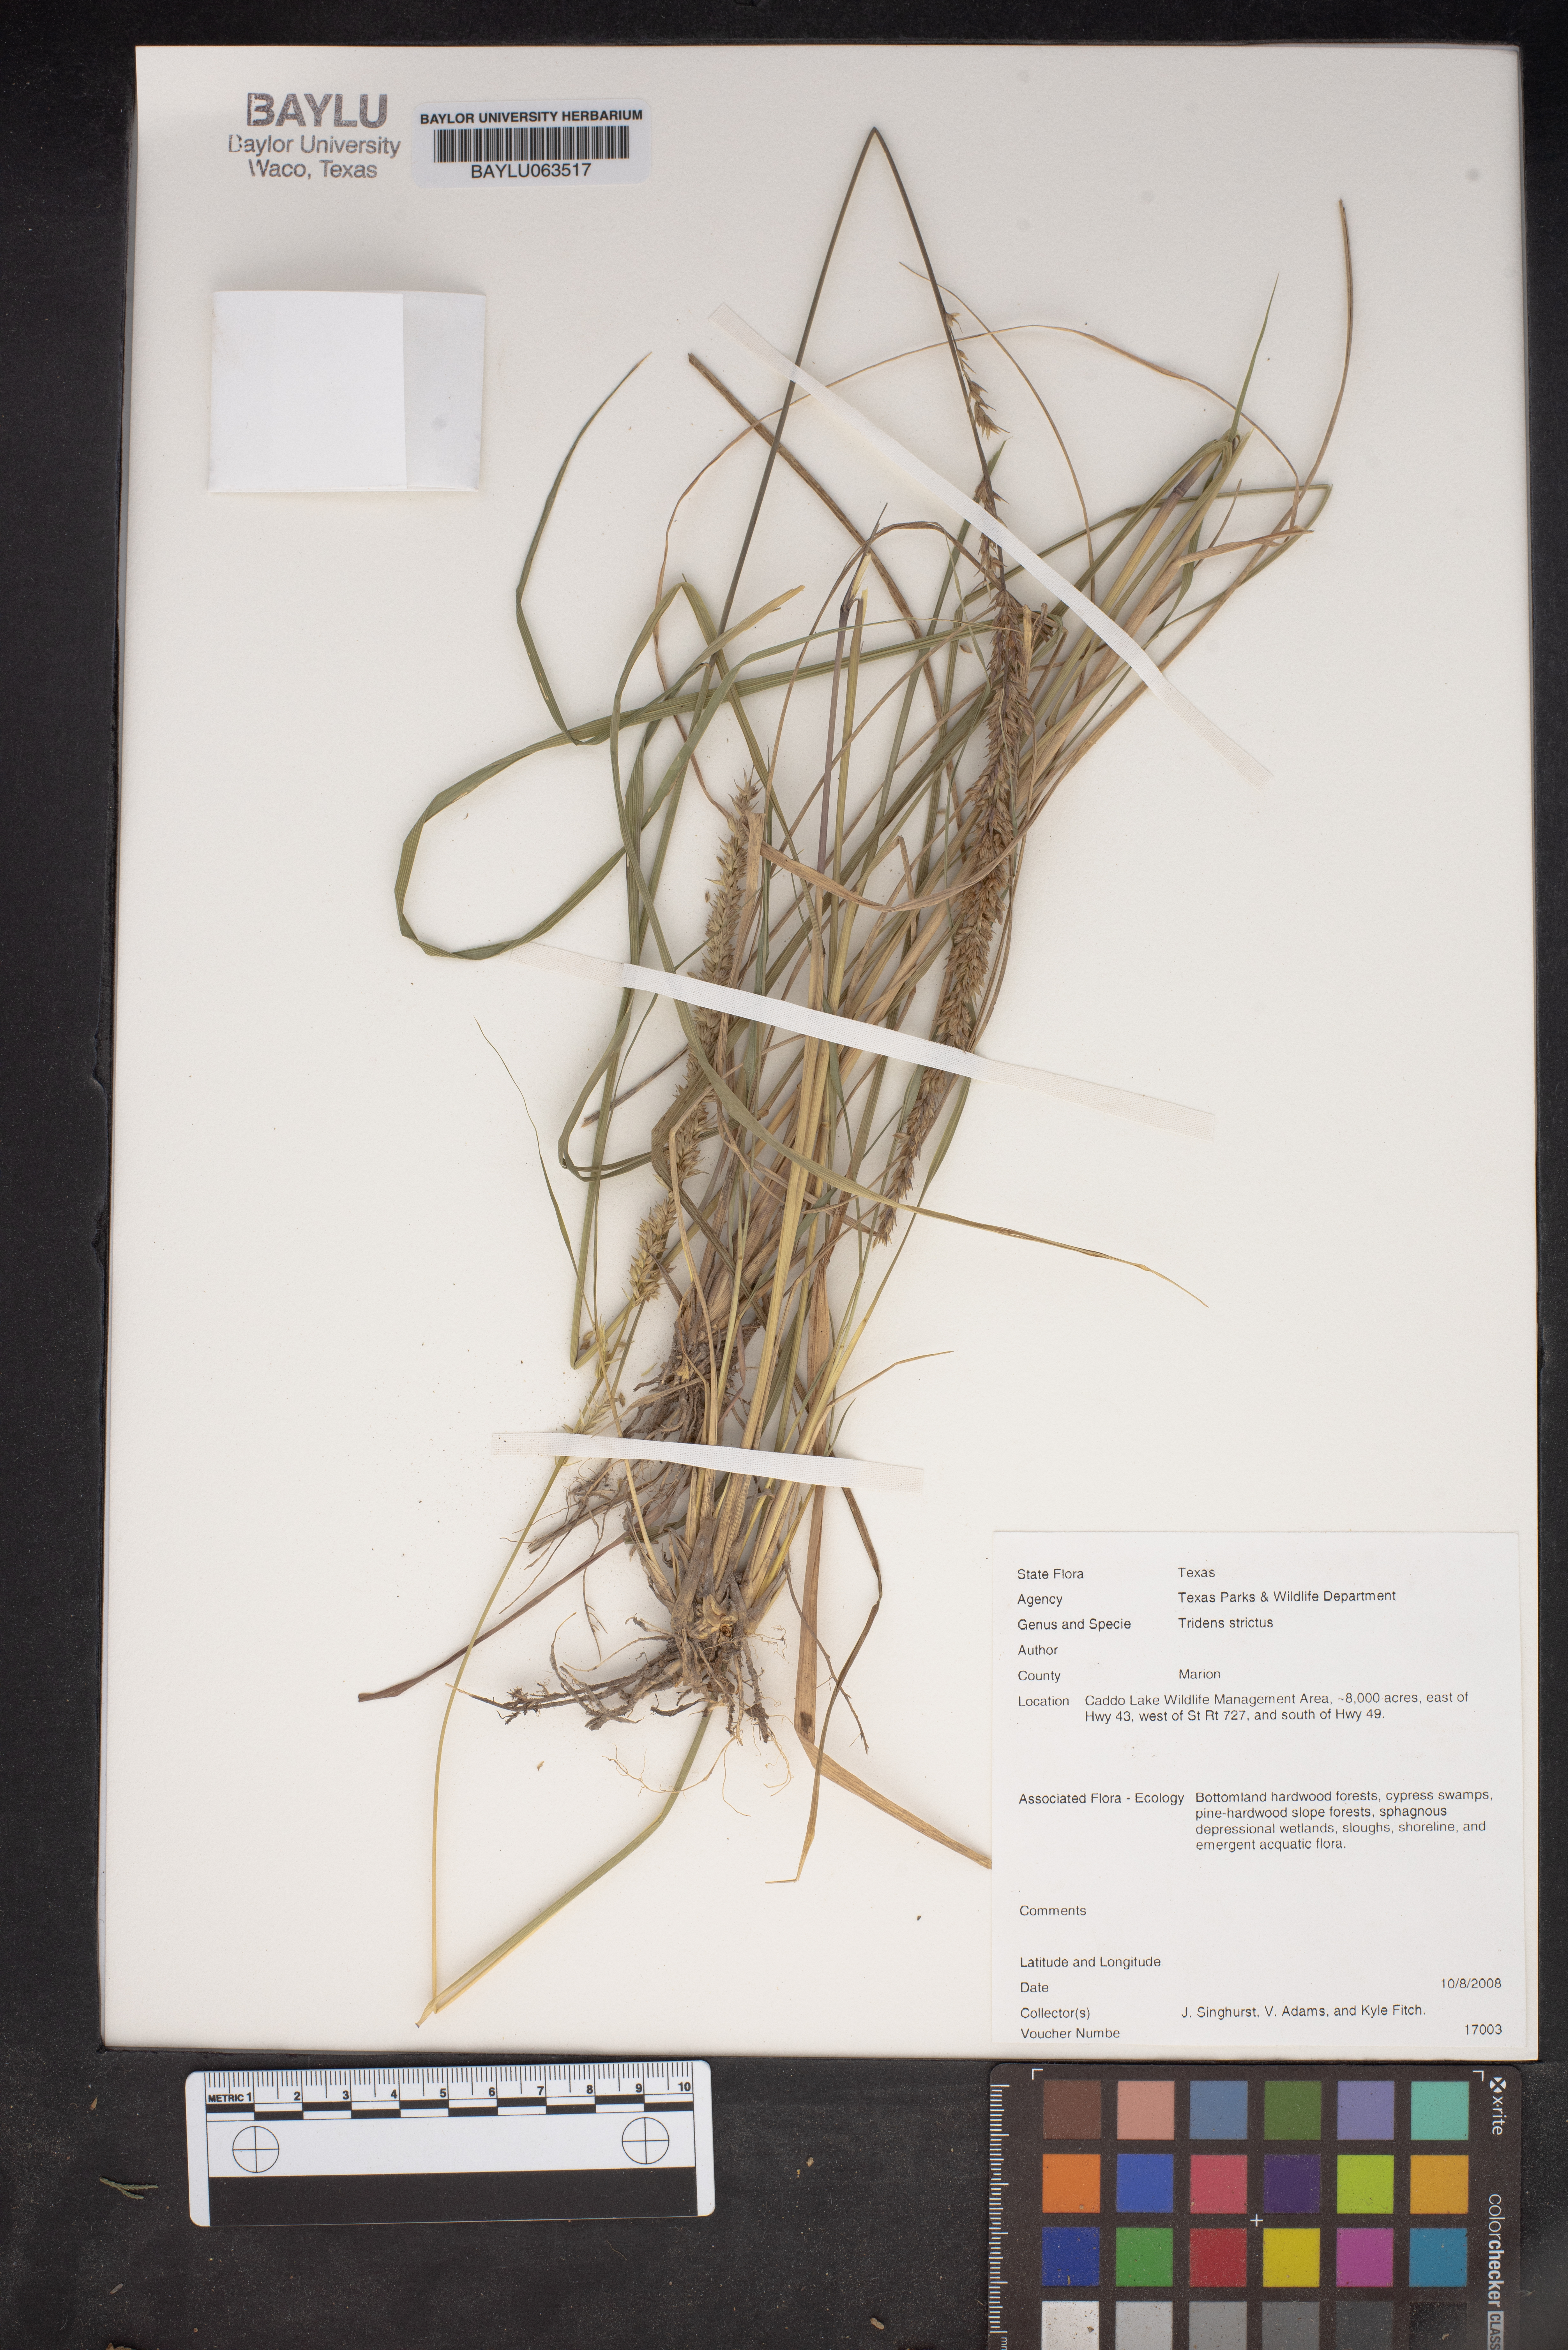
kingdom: Plantae
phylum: Tracheophyta
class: Liliopsida
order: Poales
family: Poaceae
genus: Tridens
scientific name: Tridens strictus
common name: Long-spike tridens
